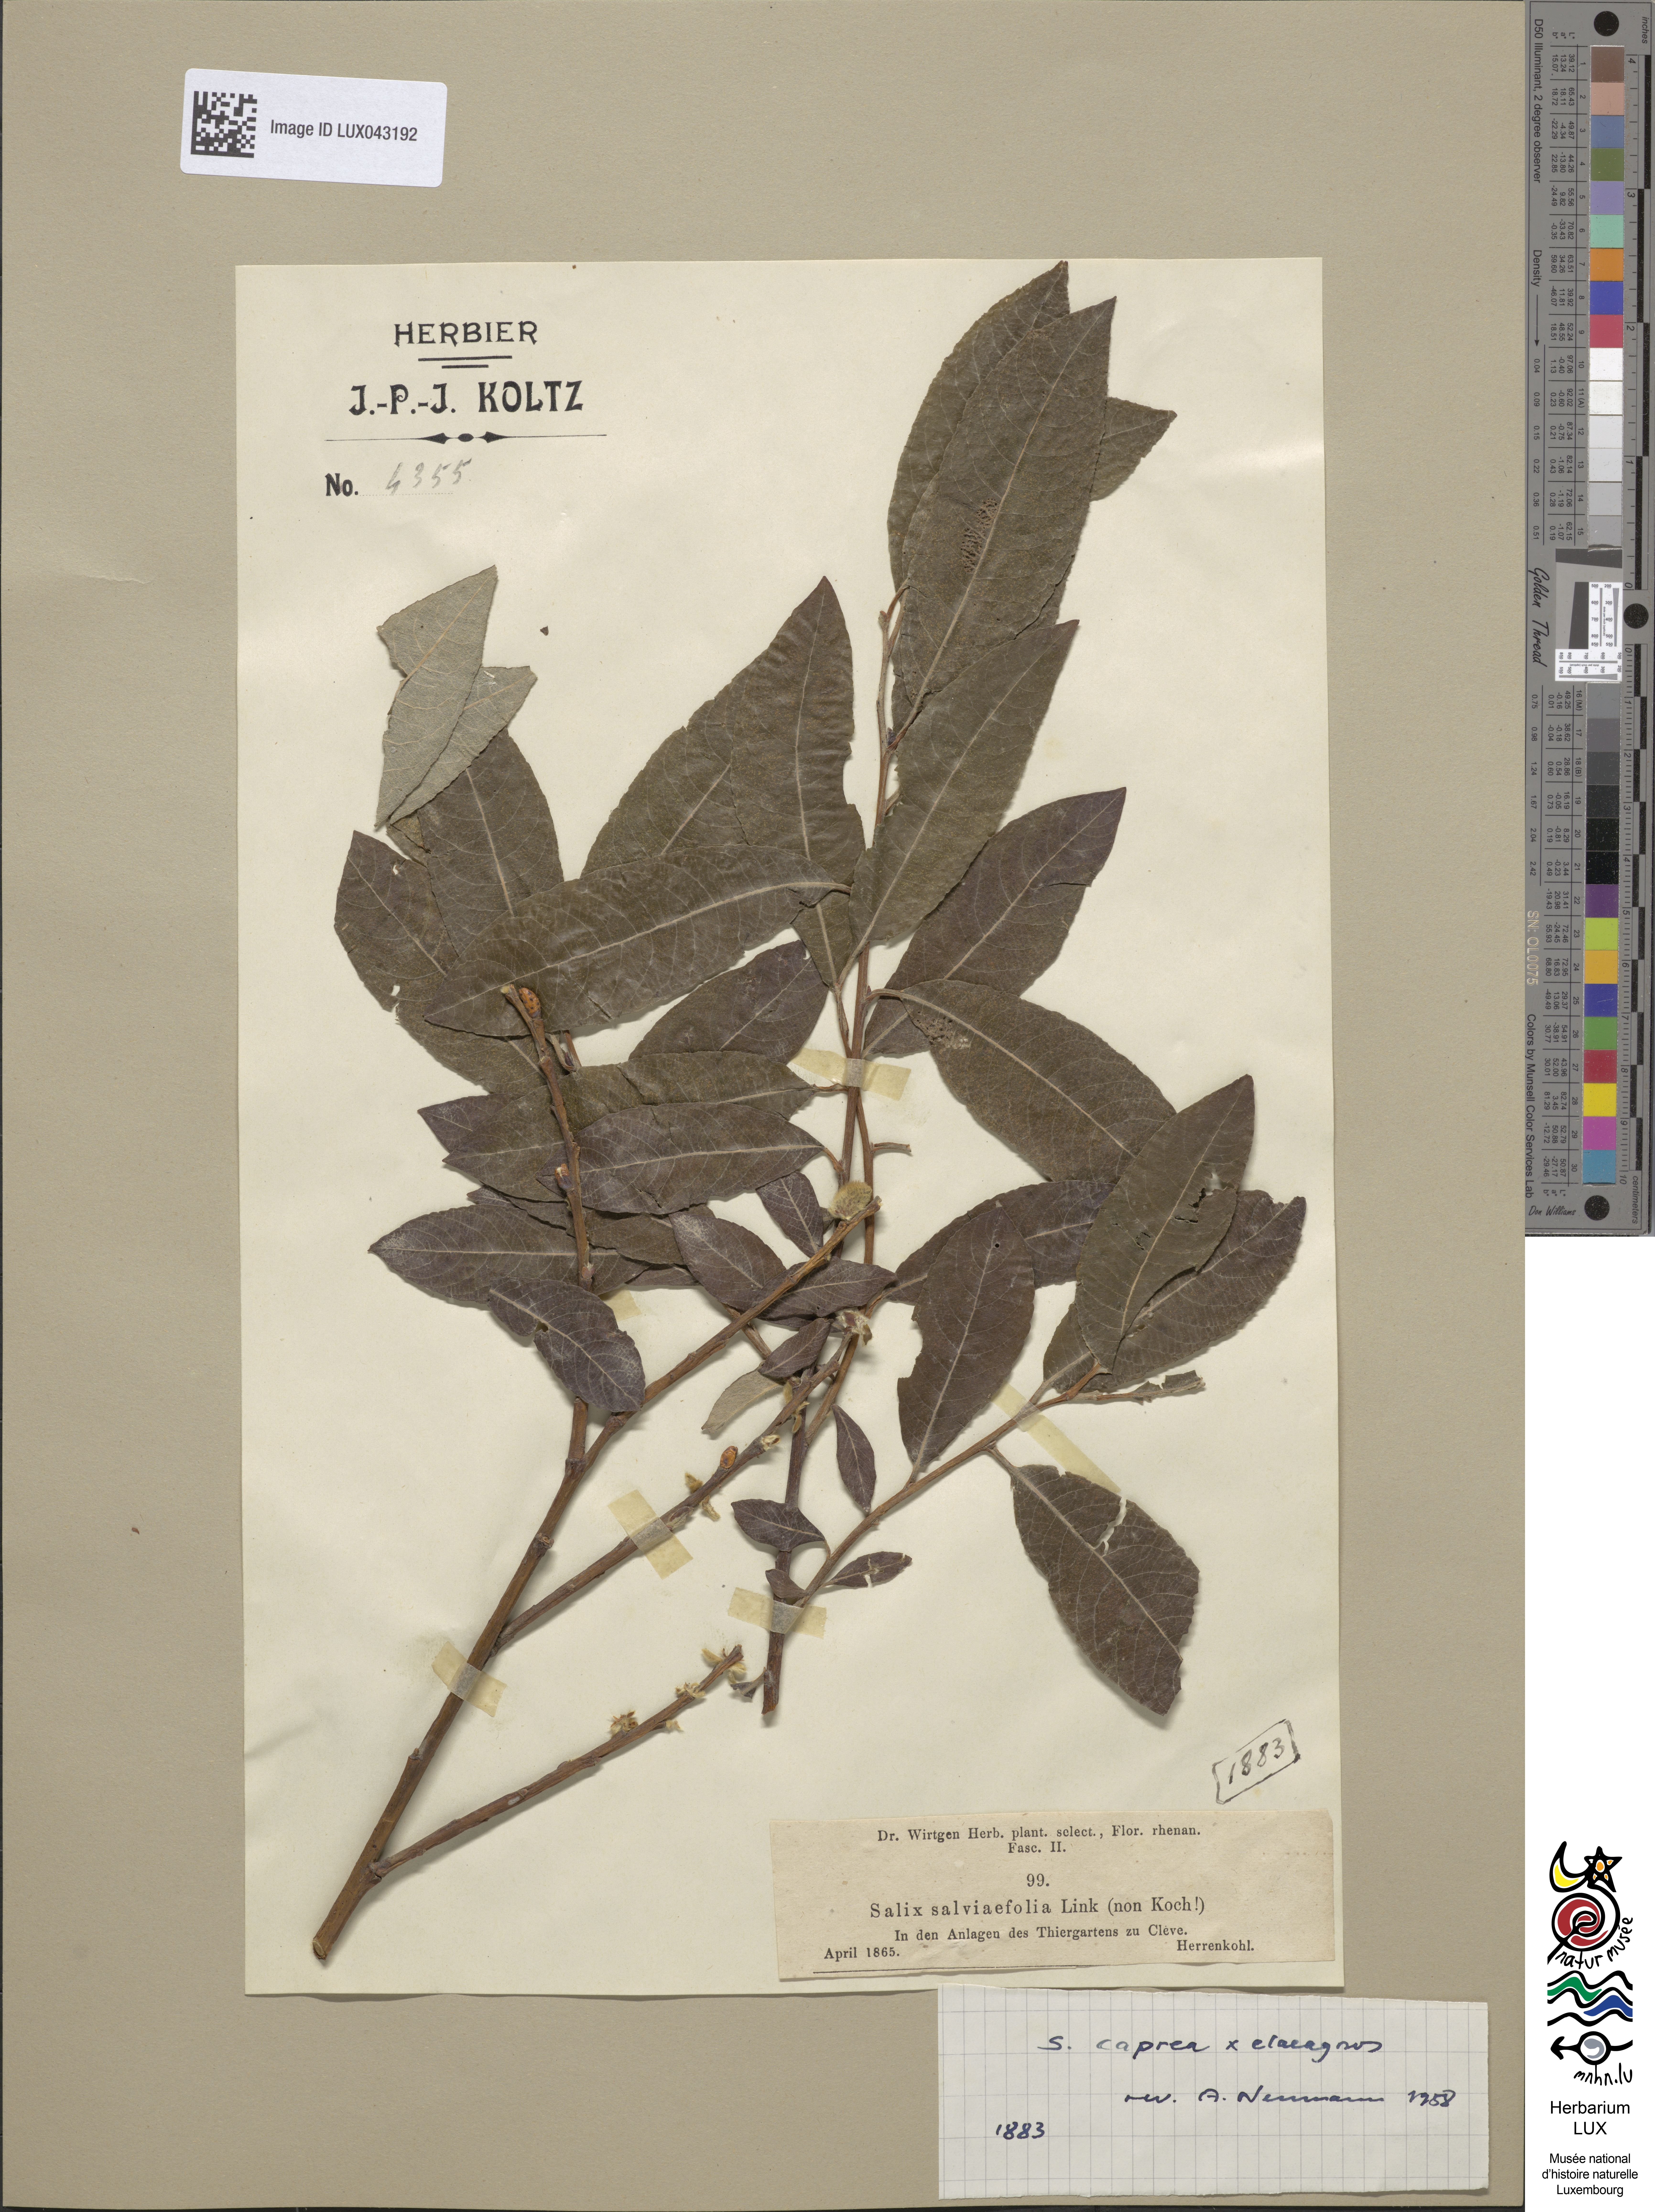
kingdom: Plantae
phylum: Tracheophyta
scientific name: Tracheophyta
